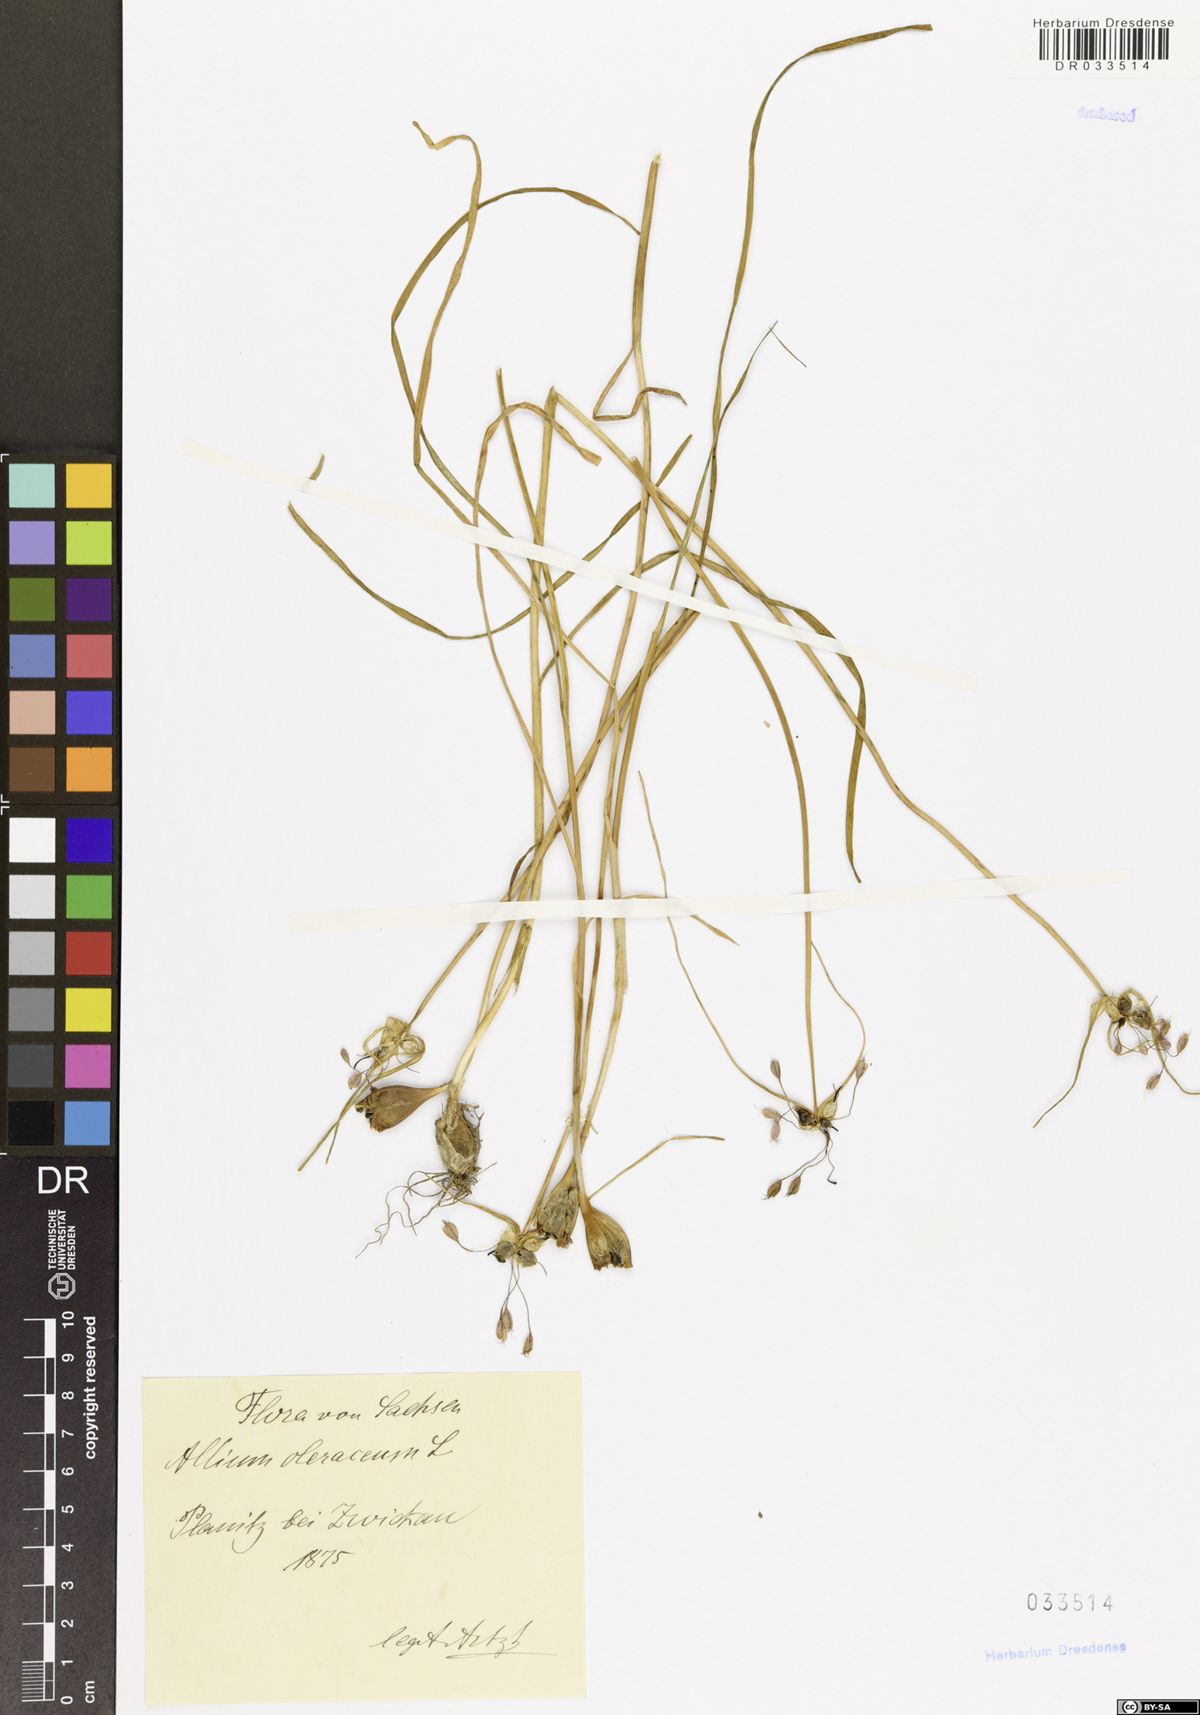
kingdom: Plantae
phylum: Tracheophyta
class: Liliopsida
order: Asparagales
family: Amaryllidaceae
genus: Allium
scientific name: Allium oleraceum
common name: Field garlic
